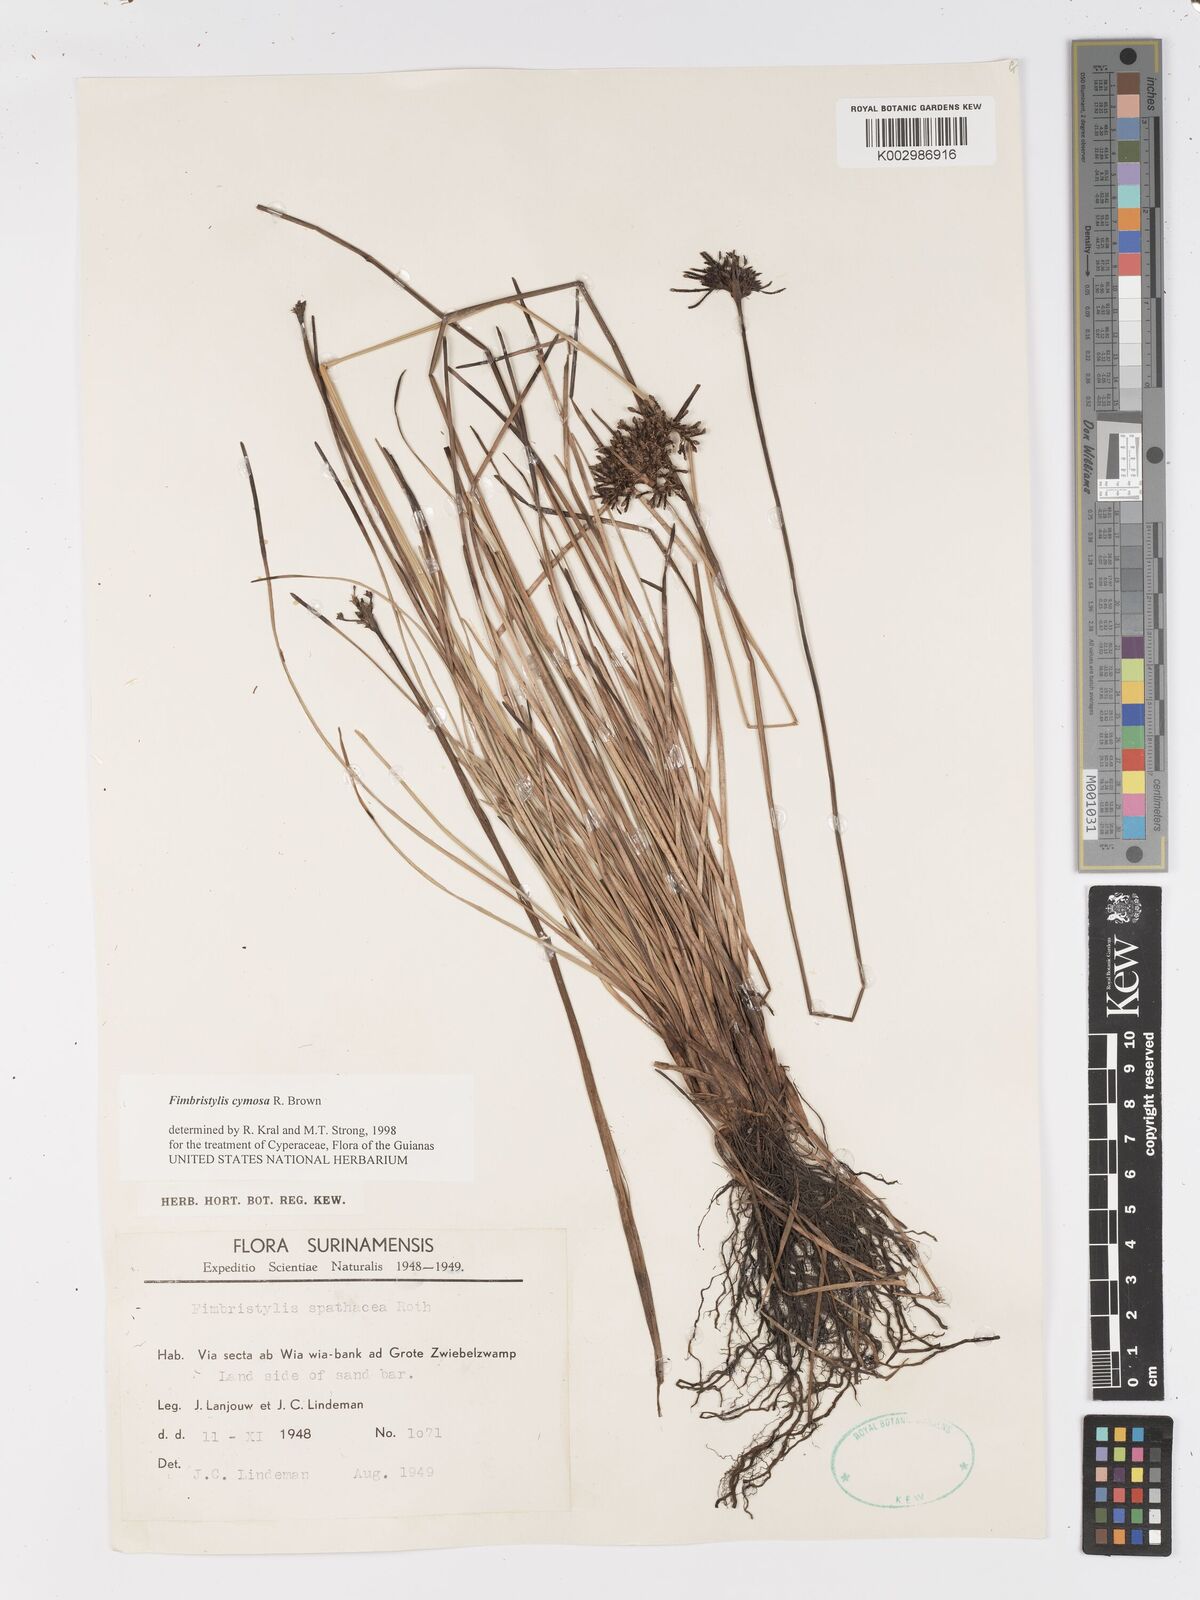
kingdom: Plantae
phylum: Tracheophyta
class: Liliopsida
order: Poales
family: Cyperaceae
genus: Fimbristylis
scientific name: Fimbristylis cymosa
